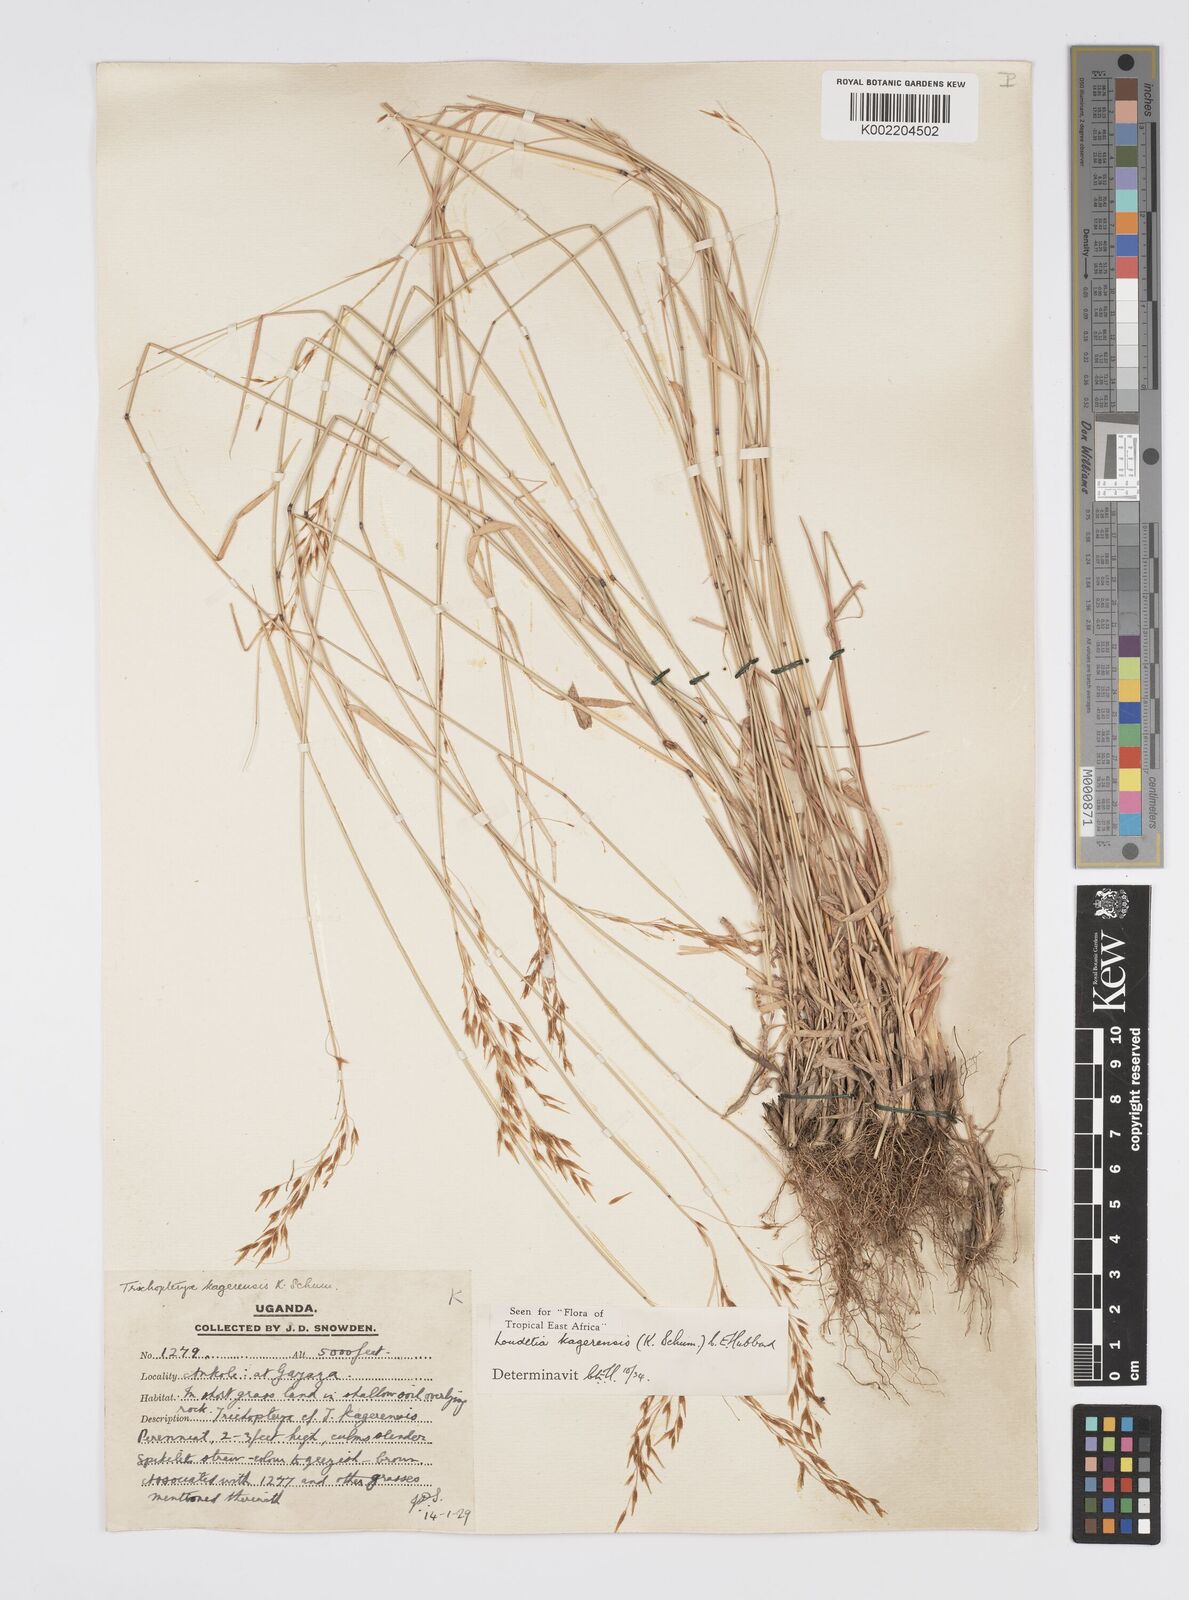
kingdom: Plantae
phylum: Tracheophyta
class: Liliopsida
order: Poales
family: Poaceae
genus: Loudetia
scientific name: Loudetia kagerensis
